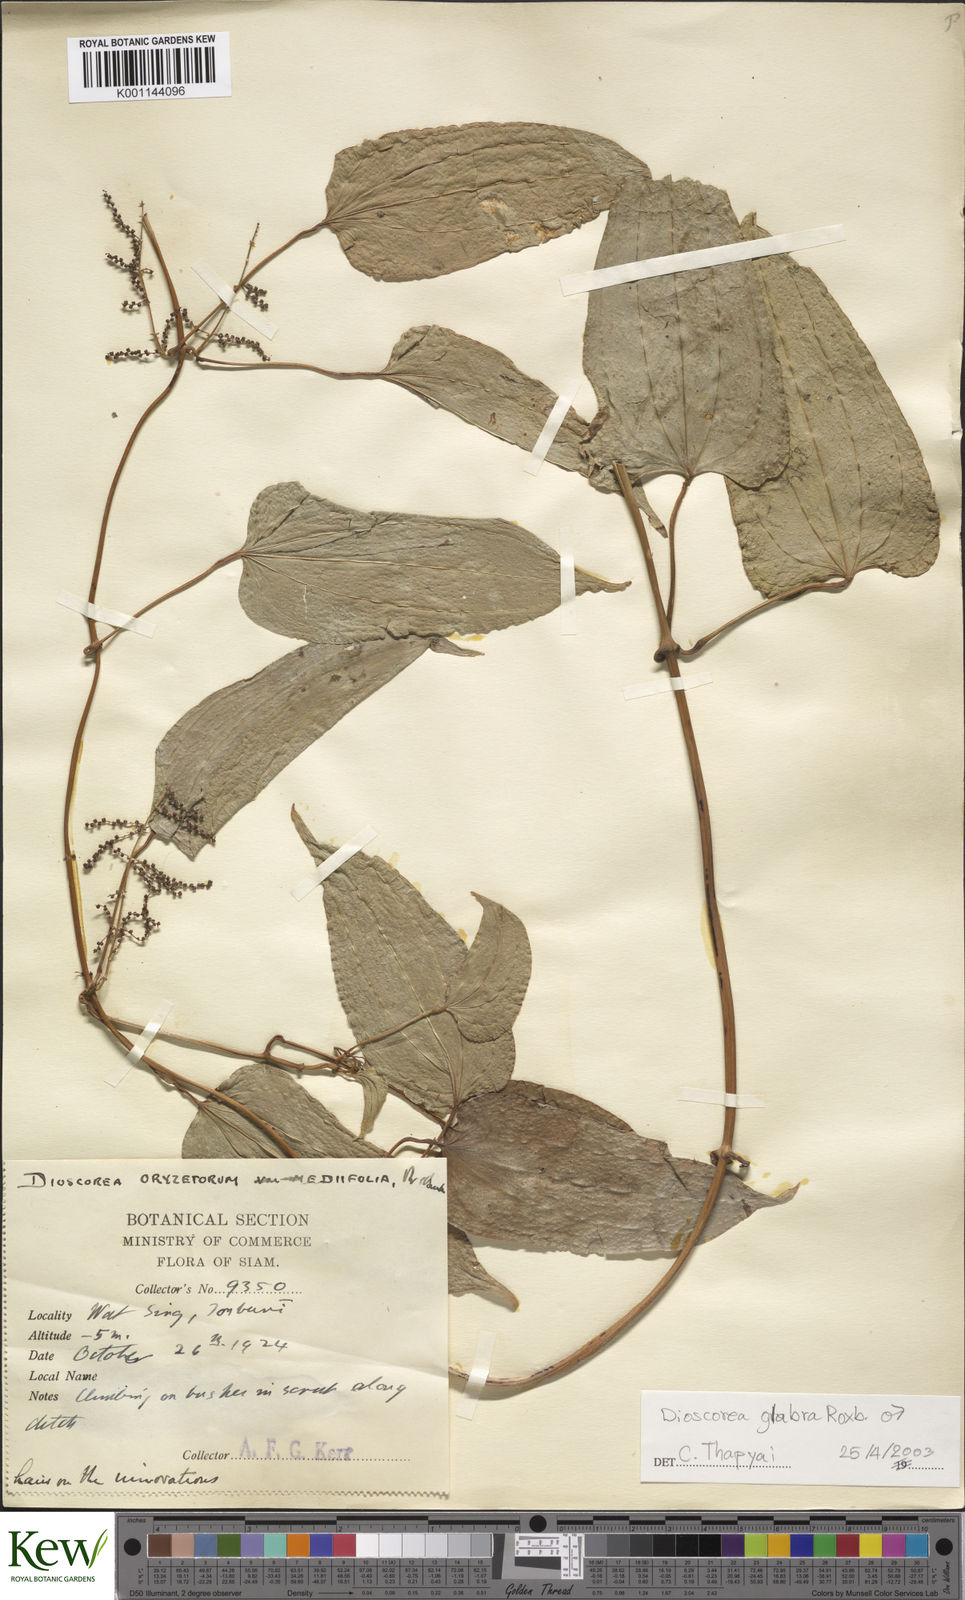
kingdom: Plantae
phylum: Tracheophyta
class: Liliopsida
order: Dioscoreales
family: Dioscoreaceae
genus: Dioscorea
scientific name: Dioscorea glabra
